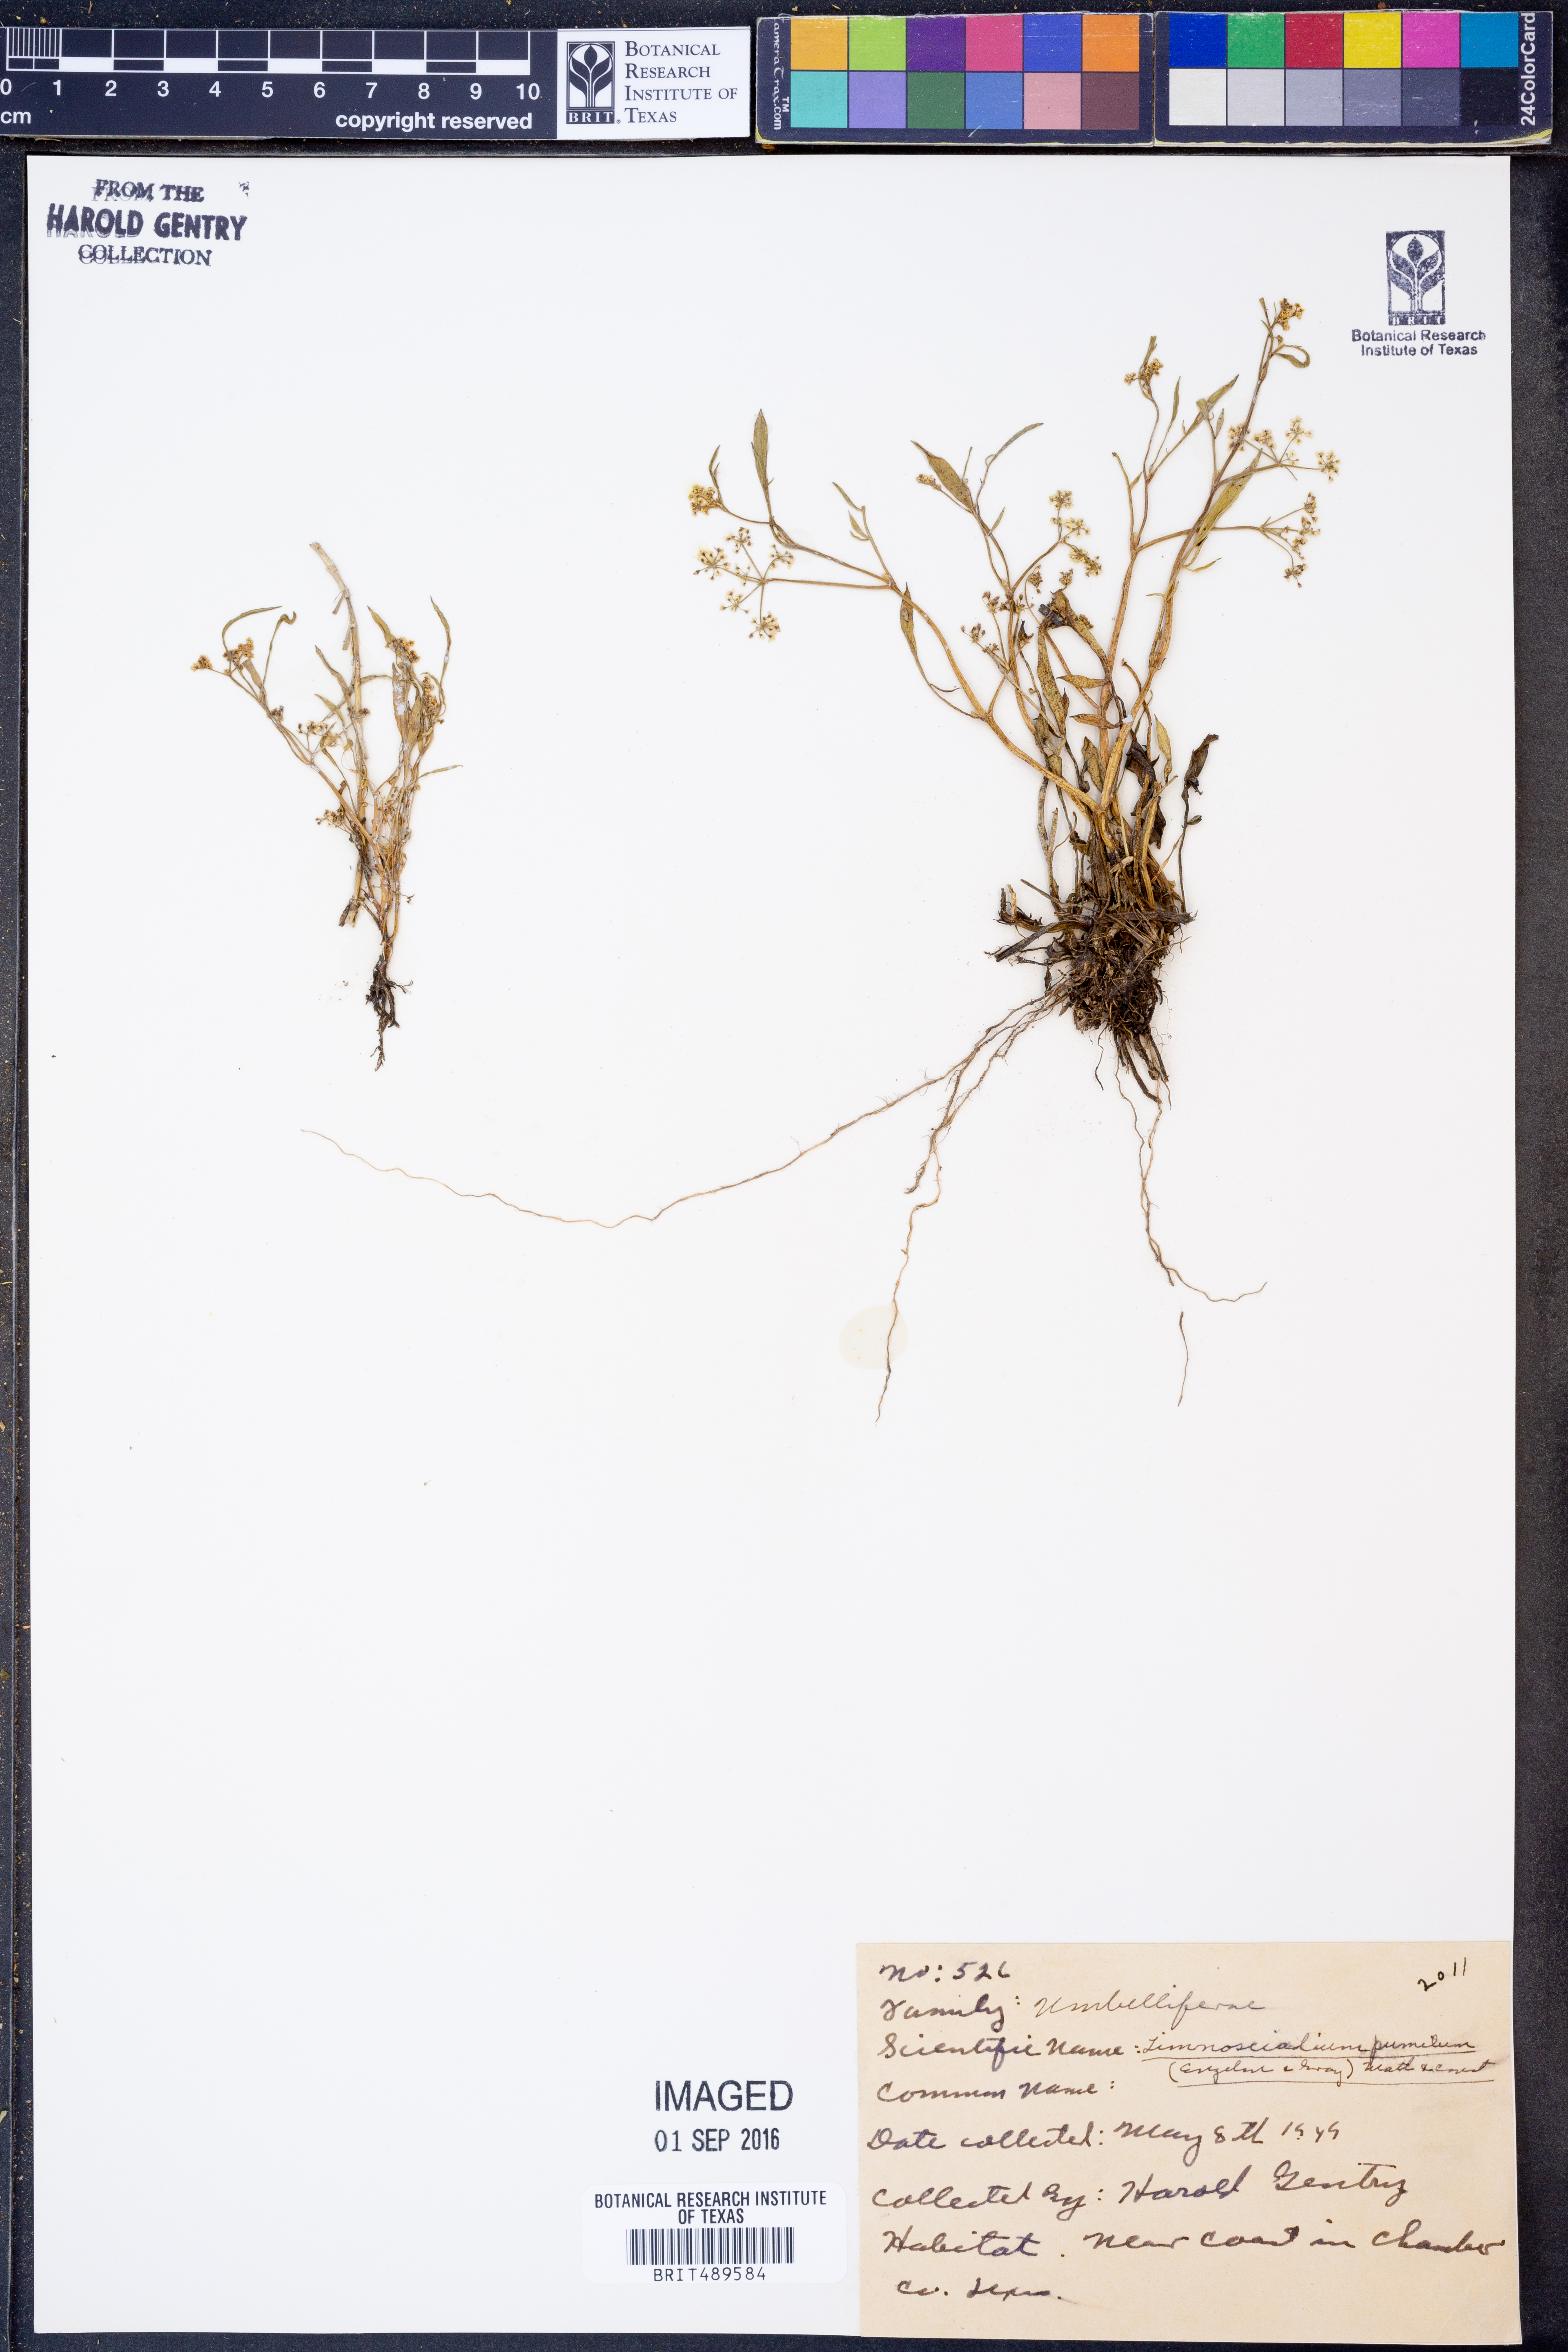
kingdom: Plantae
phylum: Tracheophyta
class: Magnoliopsida
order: Apiales
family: Apiaceae
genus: Limnosciadium
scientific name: Limnosciadium pinnatum
